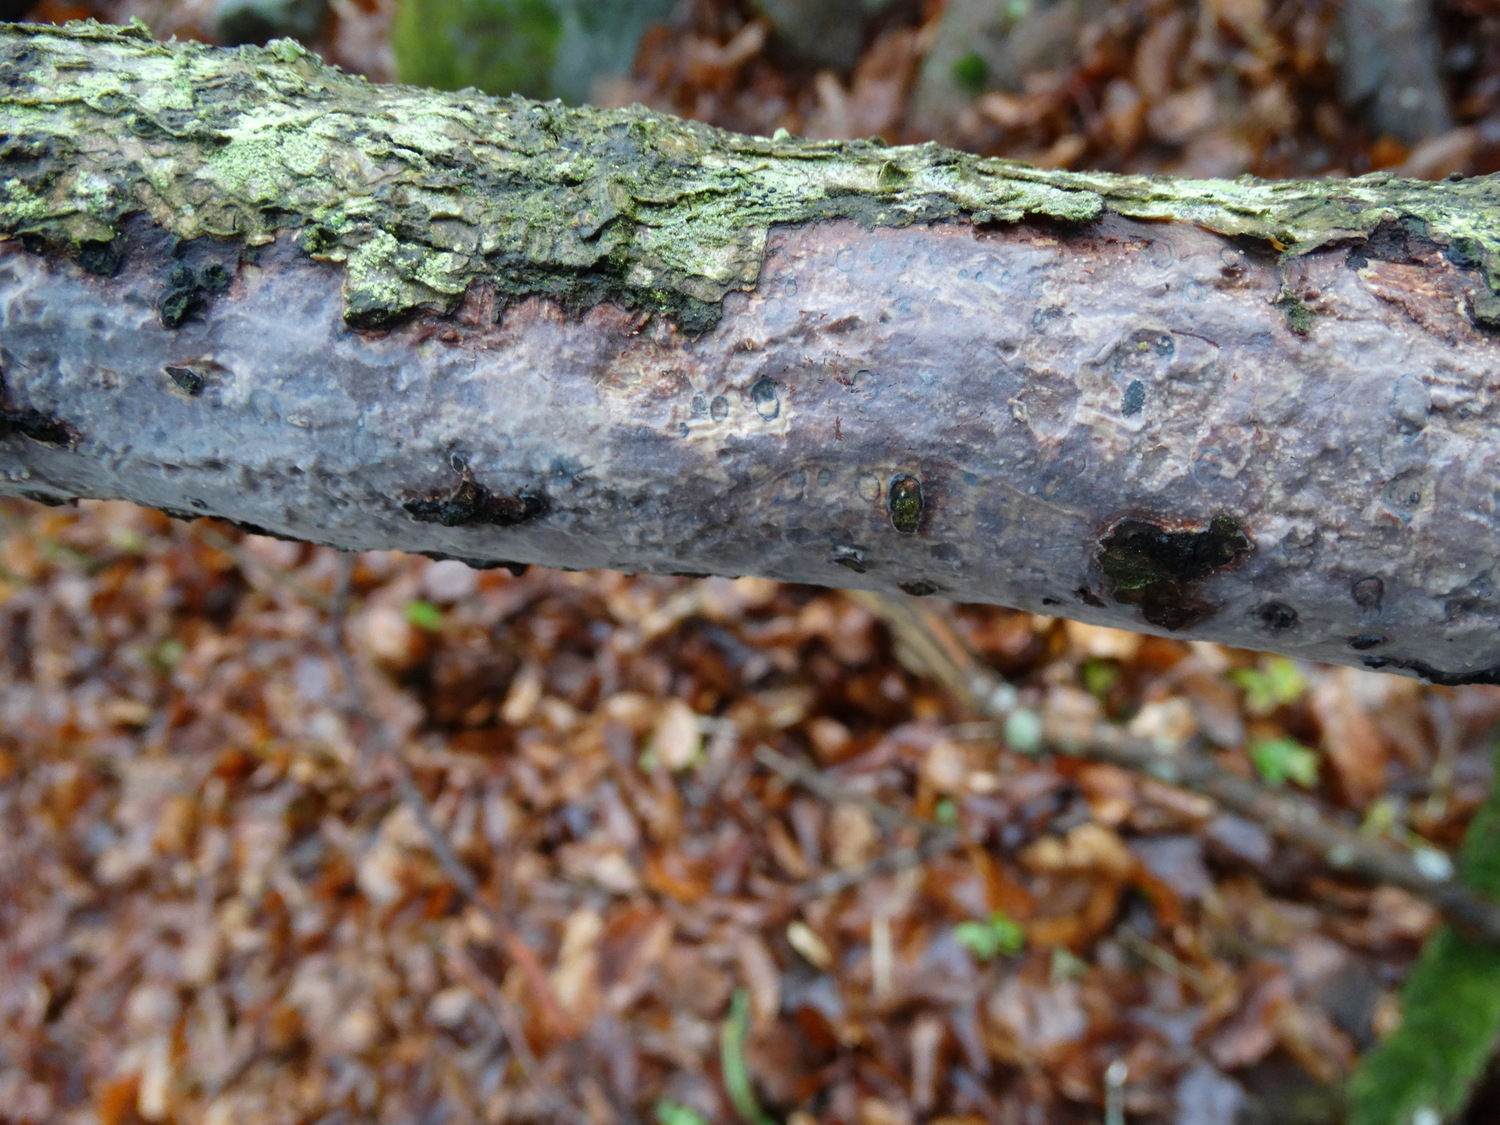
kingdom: Fungi
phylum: Basidiomycota
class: Agaricomycetes
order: Corticiales
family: Vuilleminiaceae
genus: Vuilleminia
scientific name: Vuilleminia comedens
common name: almindelig barksprænger
